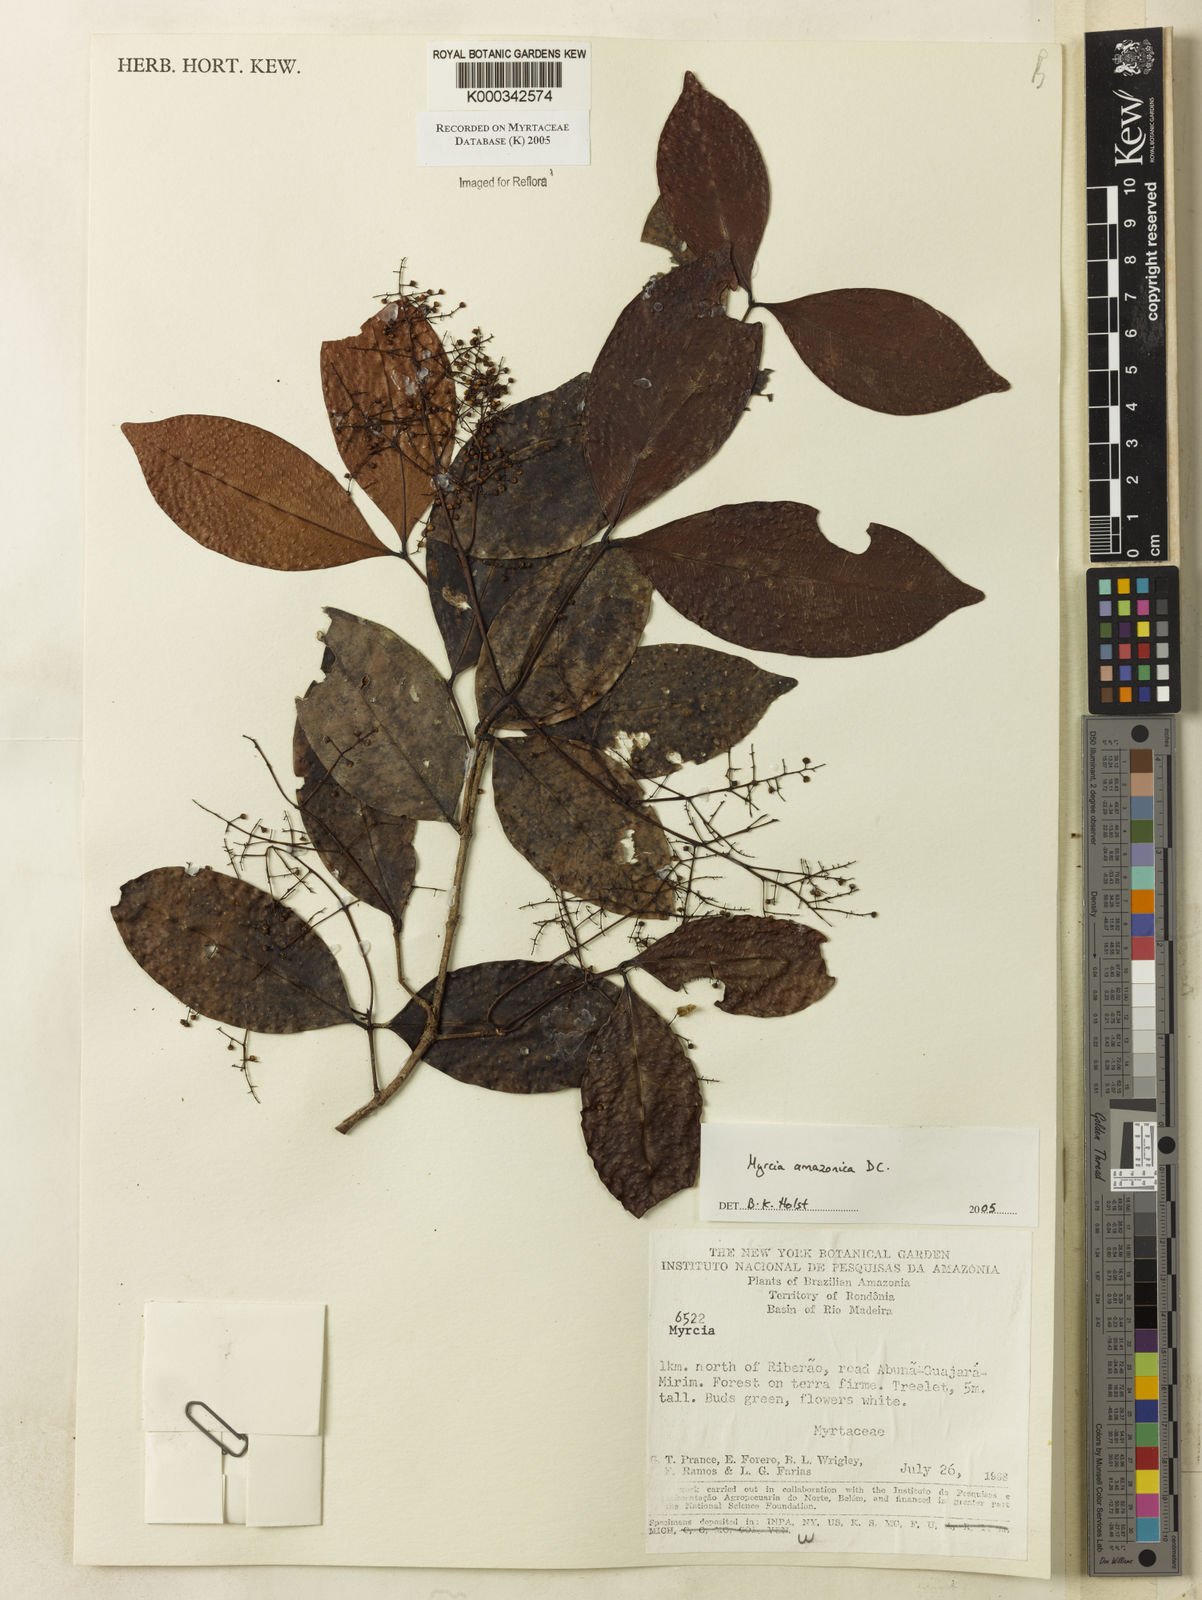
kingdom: Plantae
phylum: Tracheophyta
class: Magnoliopsida
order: Myrtales
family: Myrtaceae
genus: Myrcia
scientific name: Myrcia amazonica
